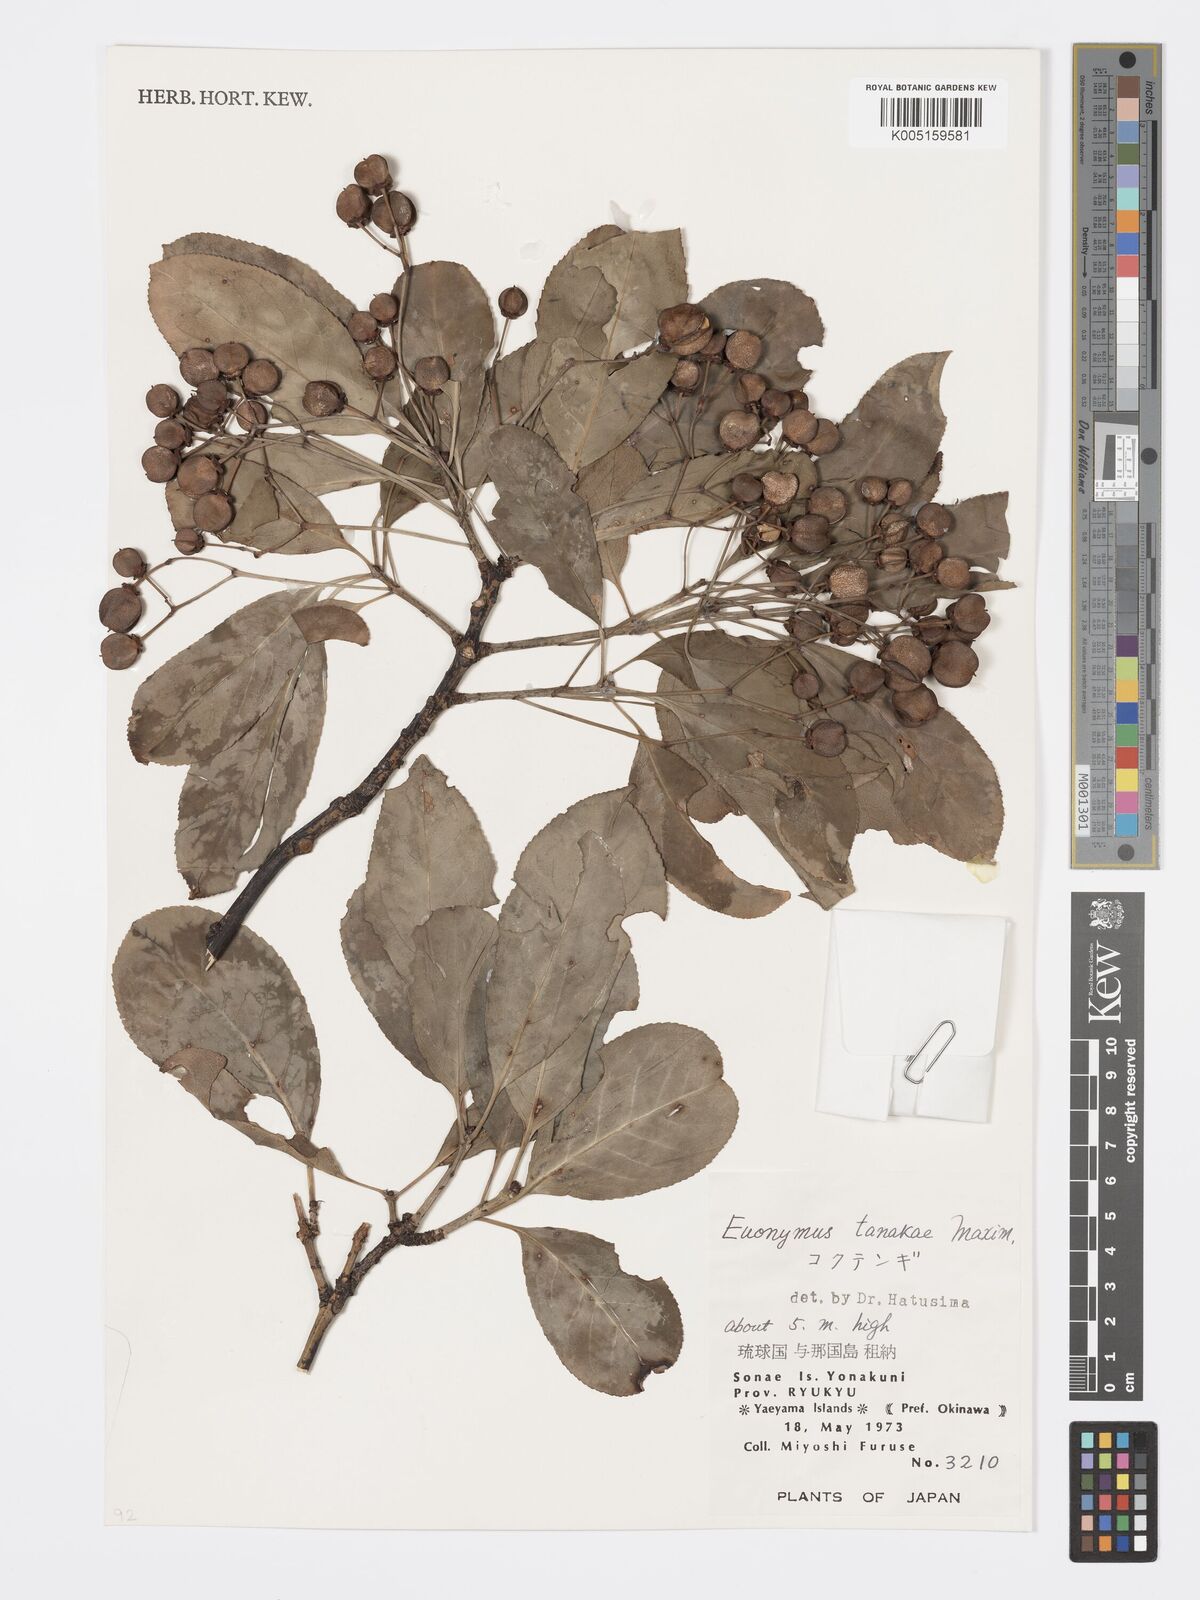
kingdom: Plantae
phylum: Tracheophyta
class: Magnoliopsida
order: Celastrales
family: Celastraceae
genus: Euonymus
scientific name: Euonymus carnosus
